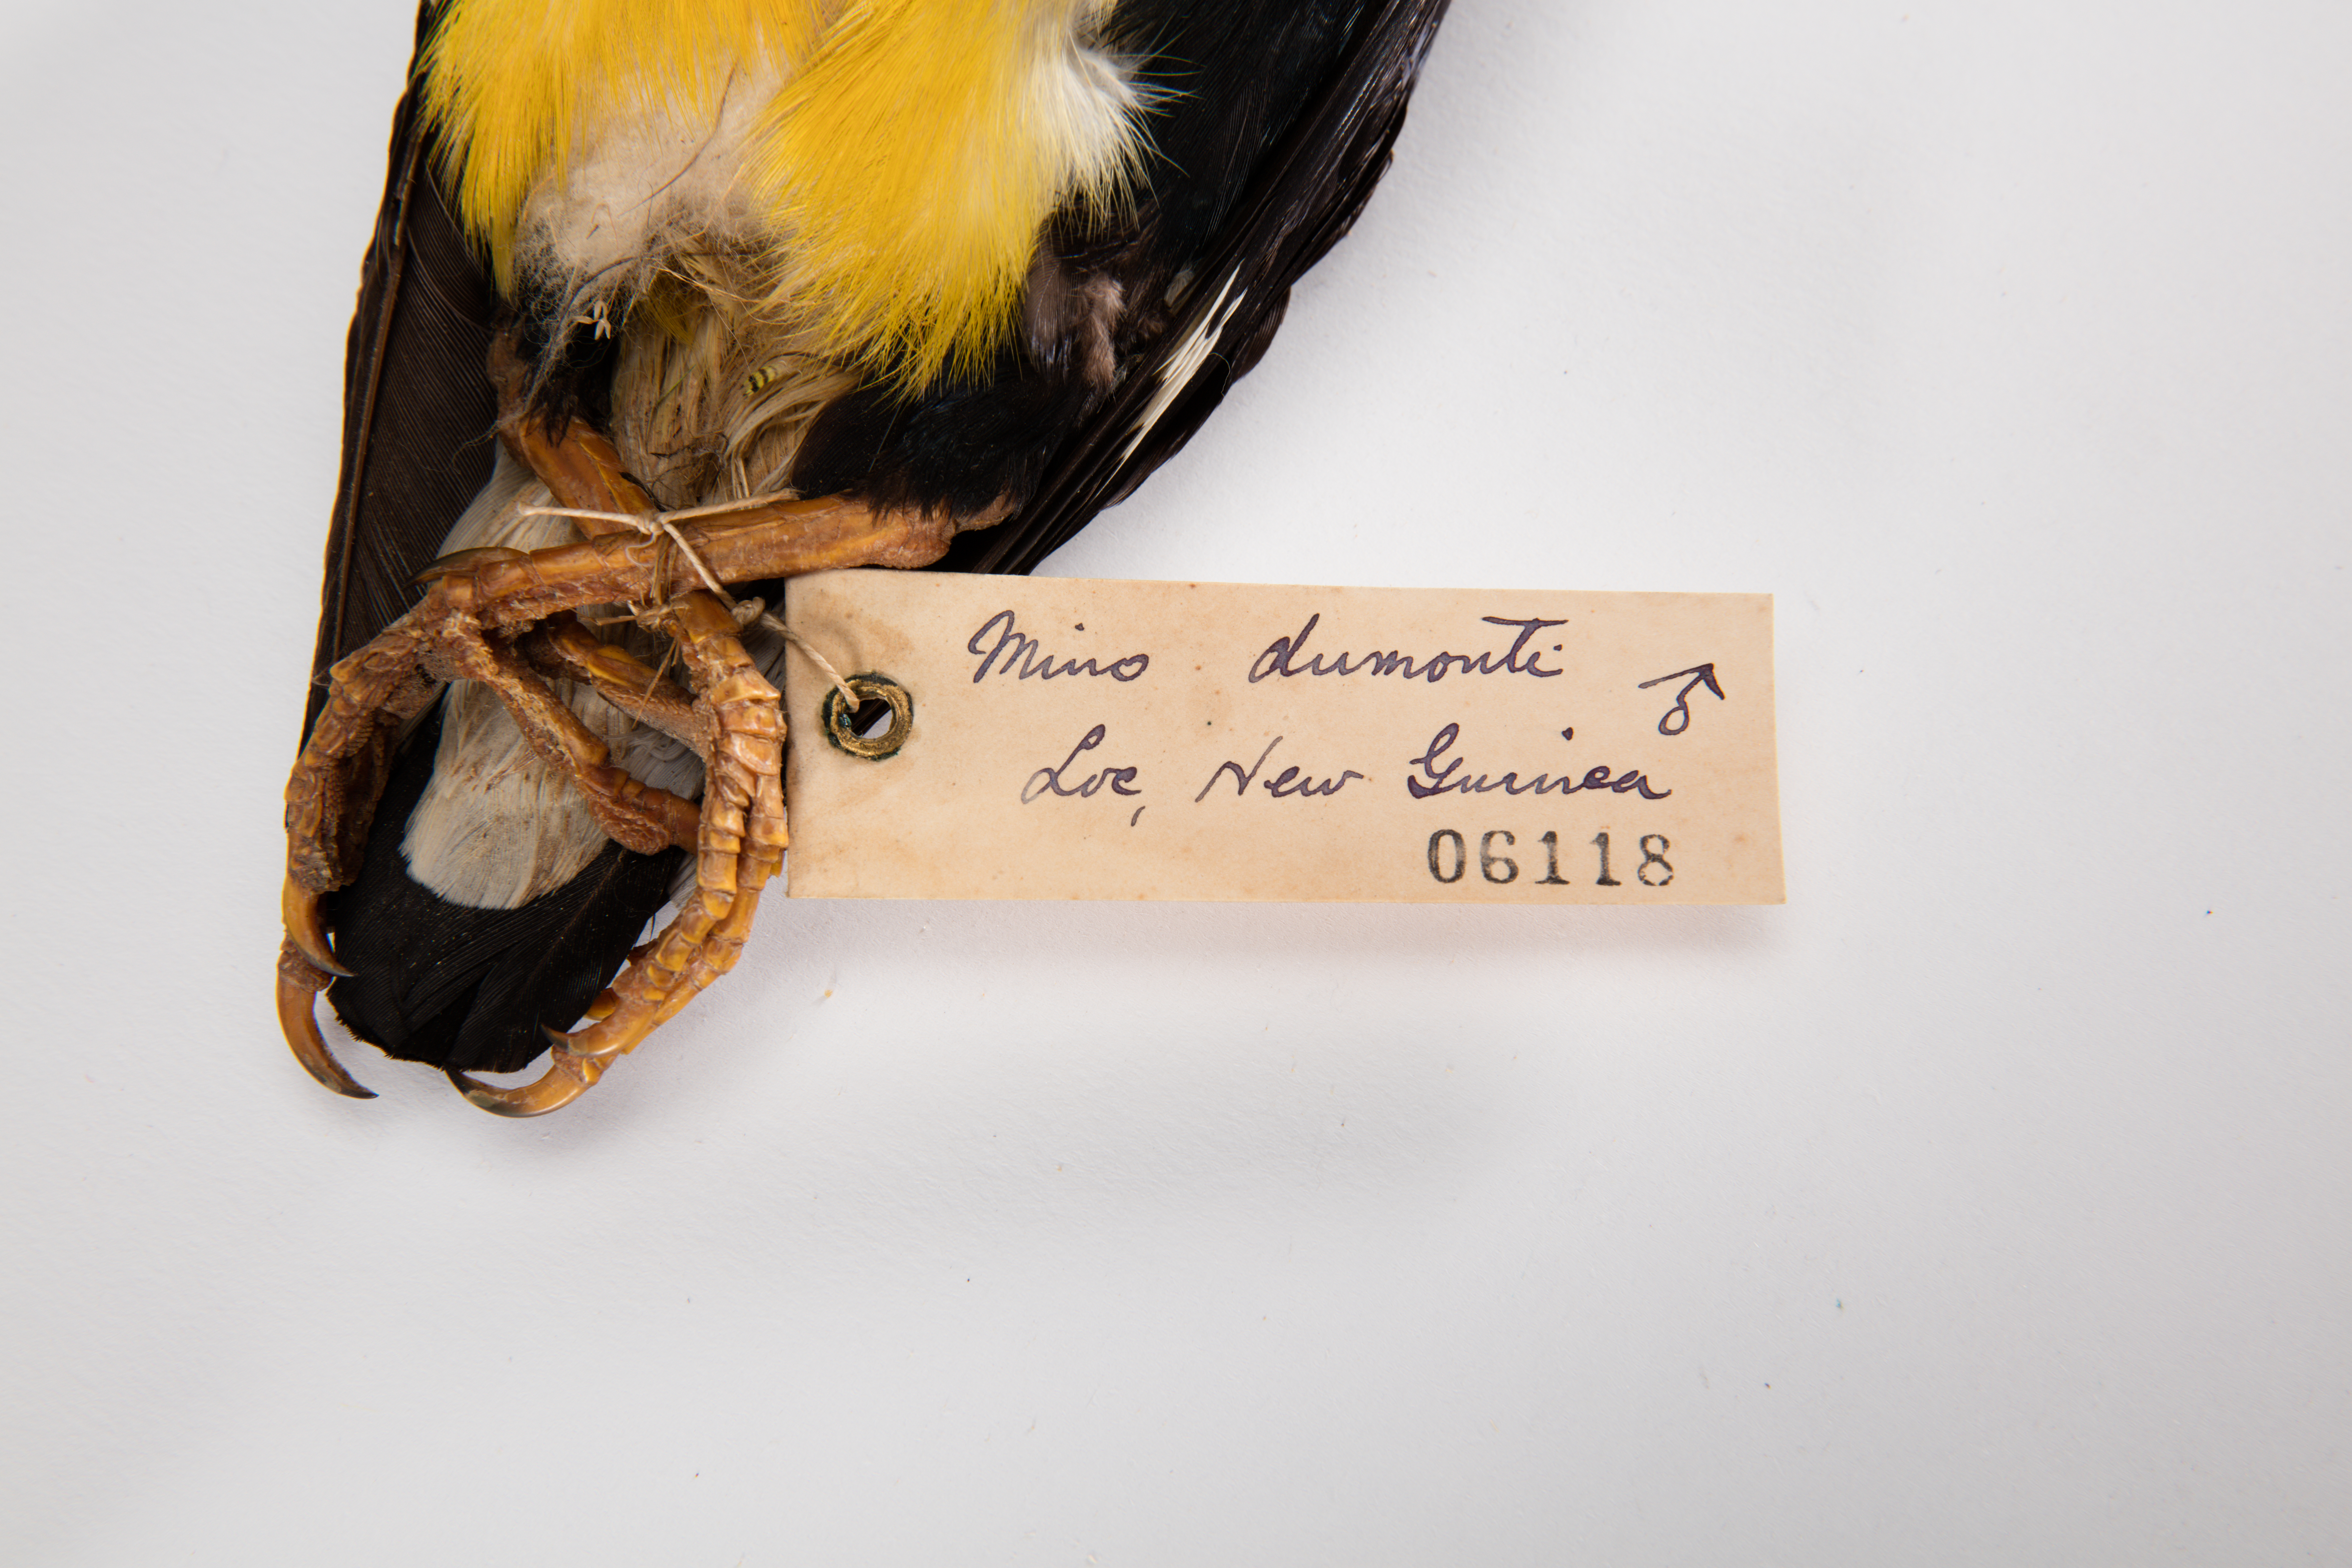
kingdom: Animalia
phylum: Chordata
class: Aves
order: Passeriformes
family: Sturnidae
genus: Mino
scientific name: Mino dumontii
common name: Yellow-faced myna
